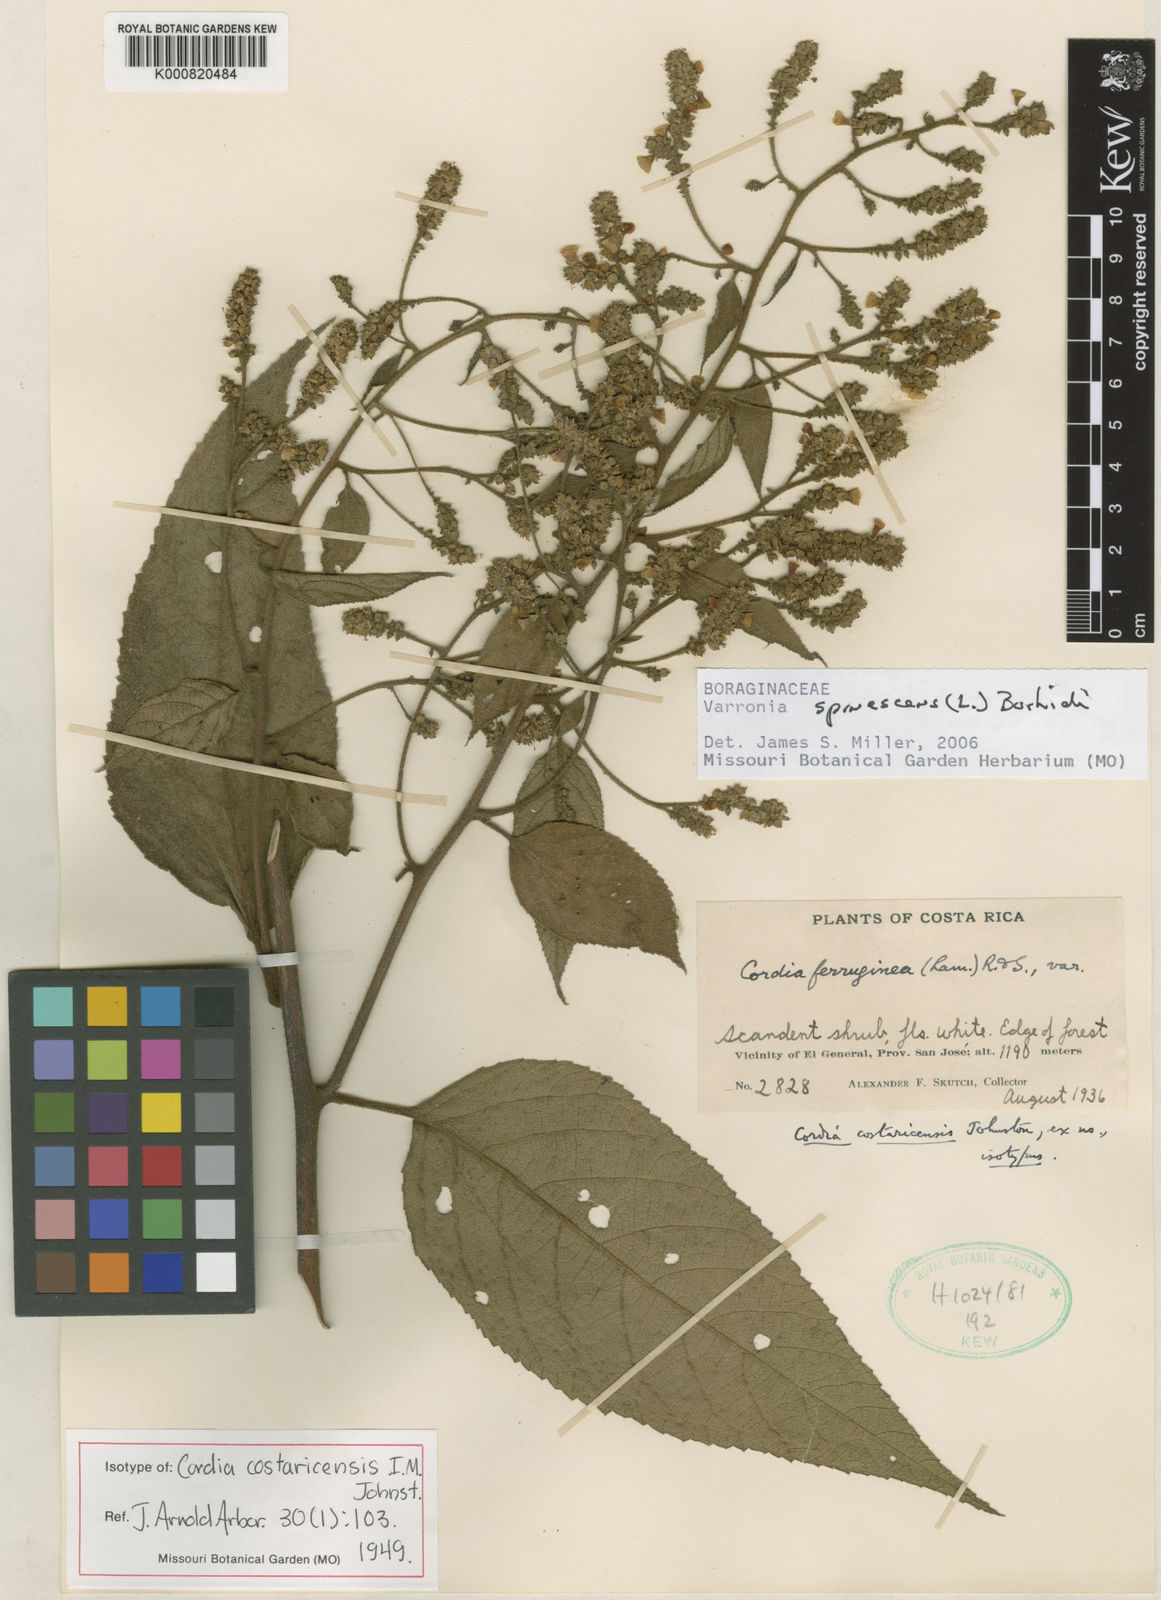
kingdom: Plantae
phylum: Tracheophyta
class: Magnoliopsida
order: Boraginales
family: Cordiaceae
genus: Varronia
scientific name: Varronia spinescens
